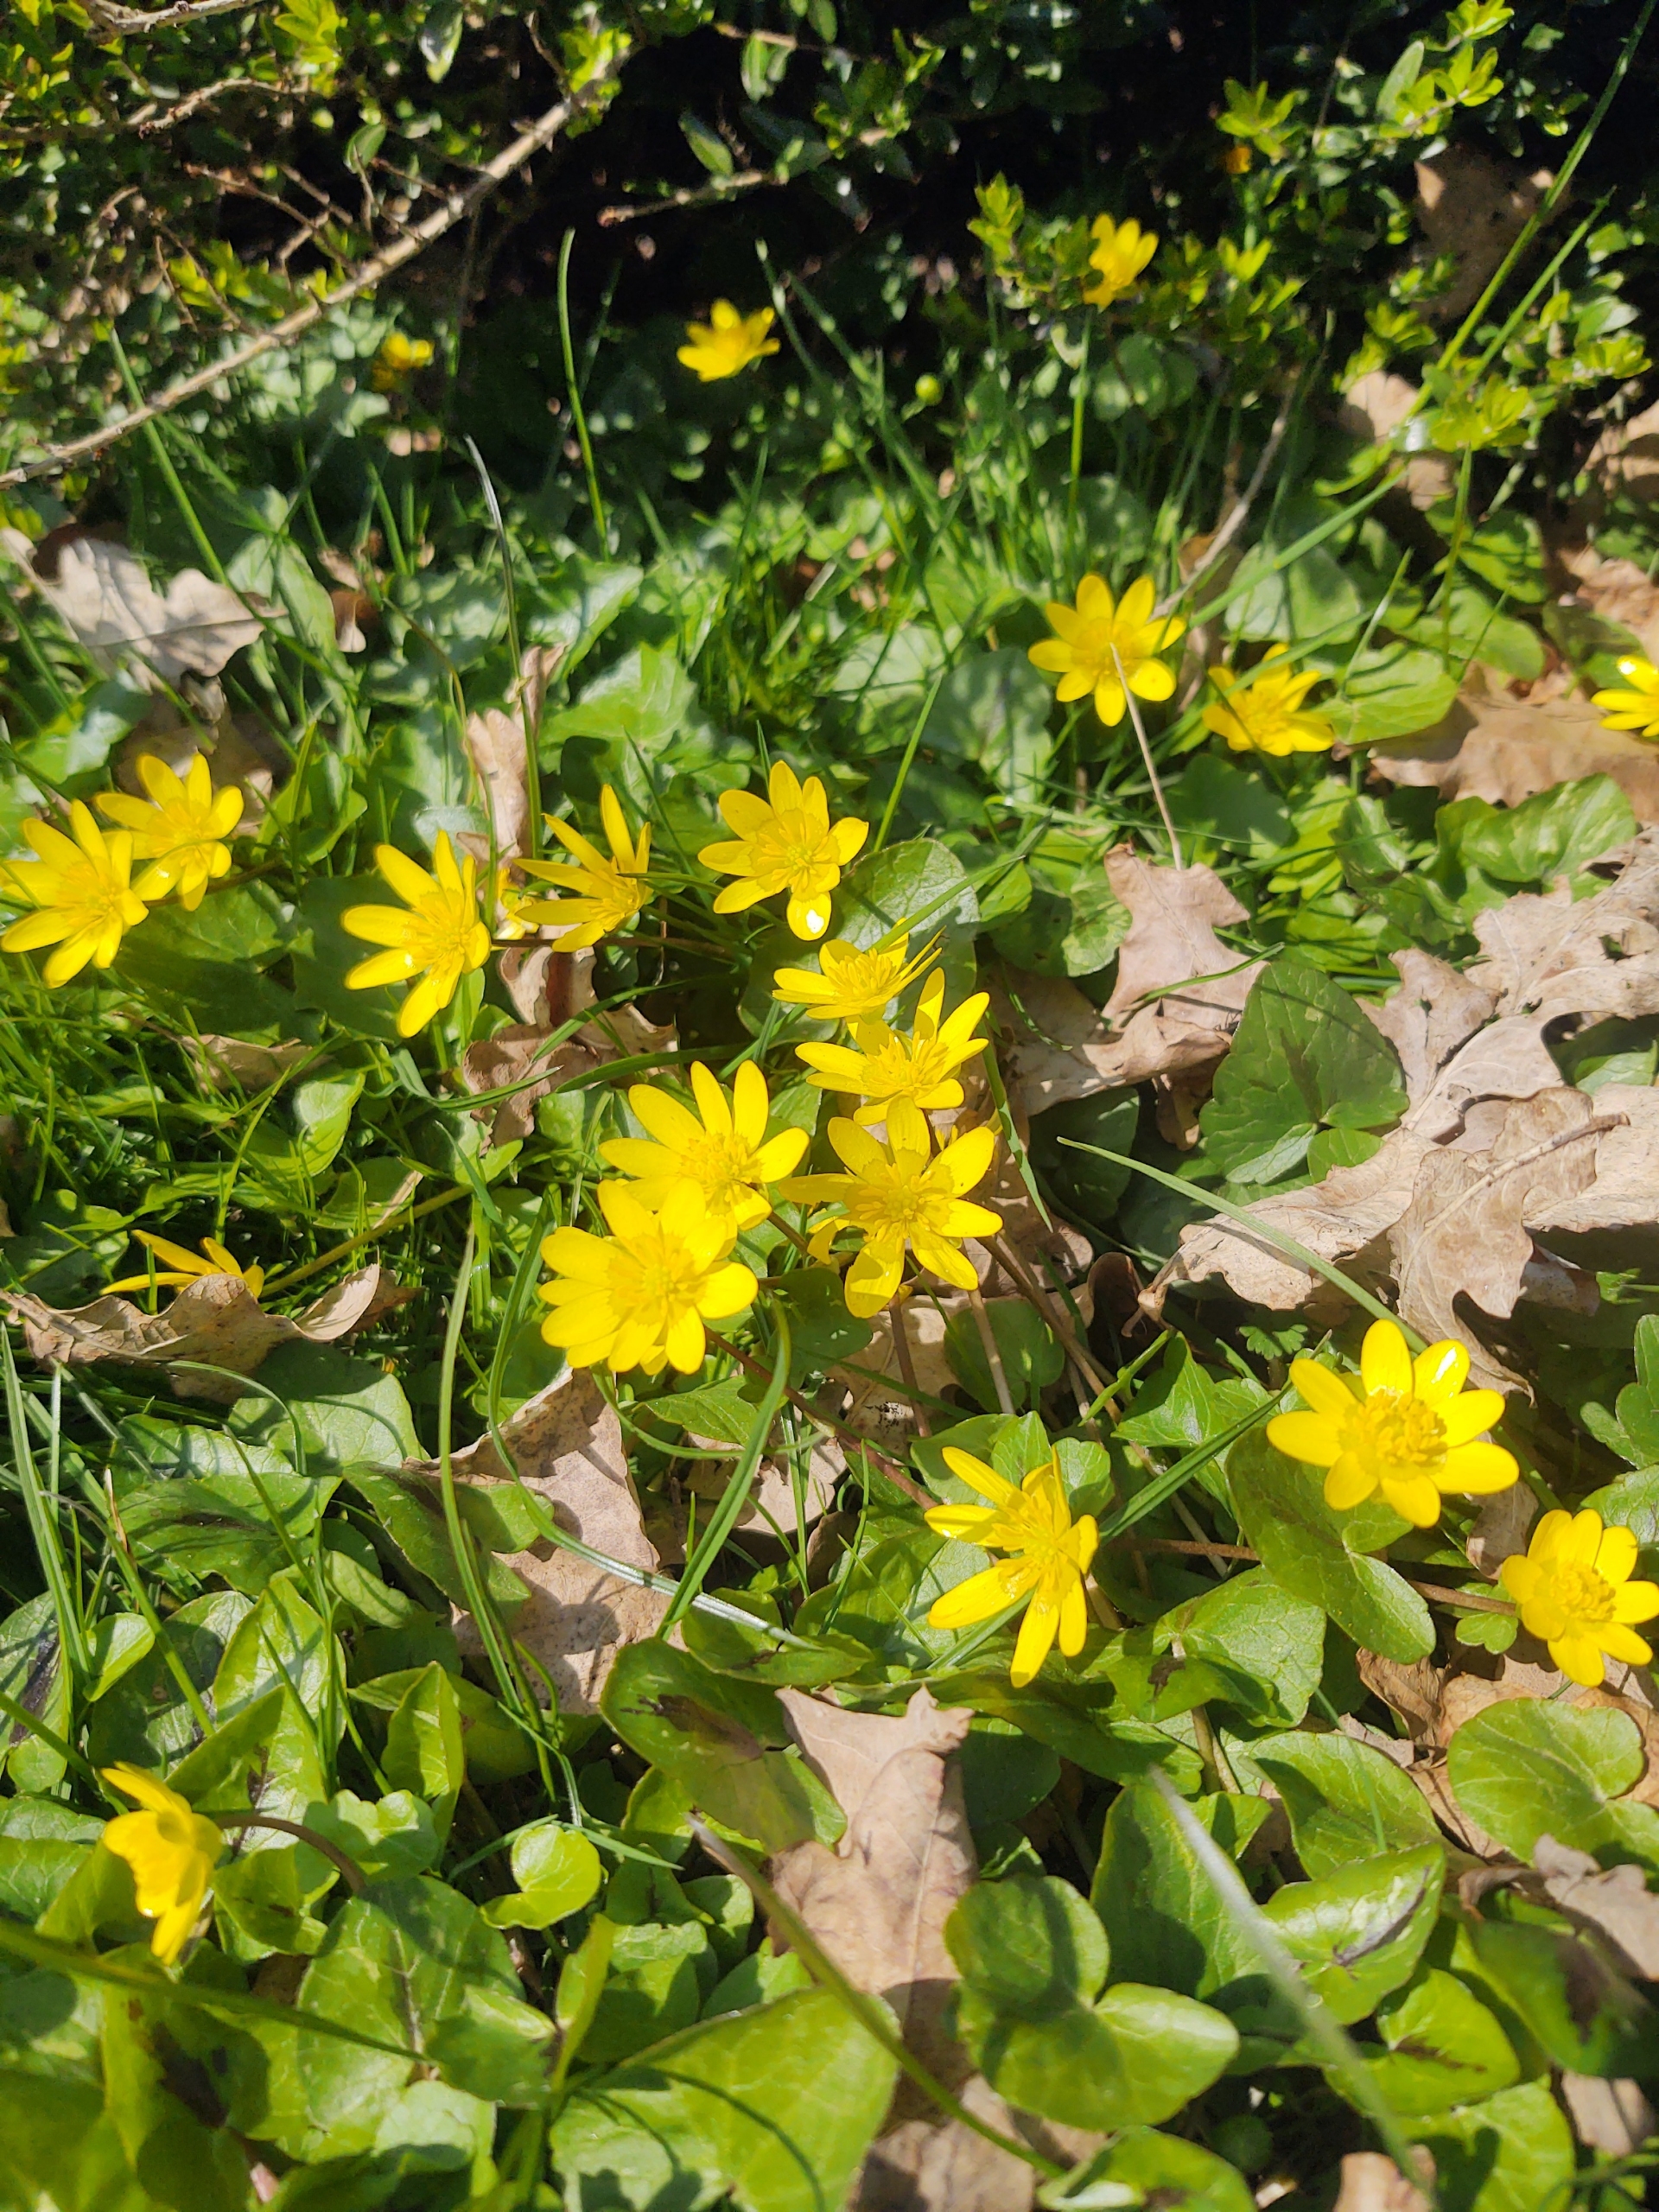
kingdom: Plantae
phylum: Tracheophyta
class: Magnoliopsida
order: Ranunculales
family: Ranunculaceae
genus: Ficaria
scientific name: Ficaria verna
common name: Vorterod
